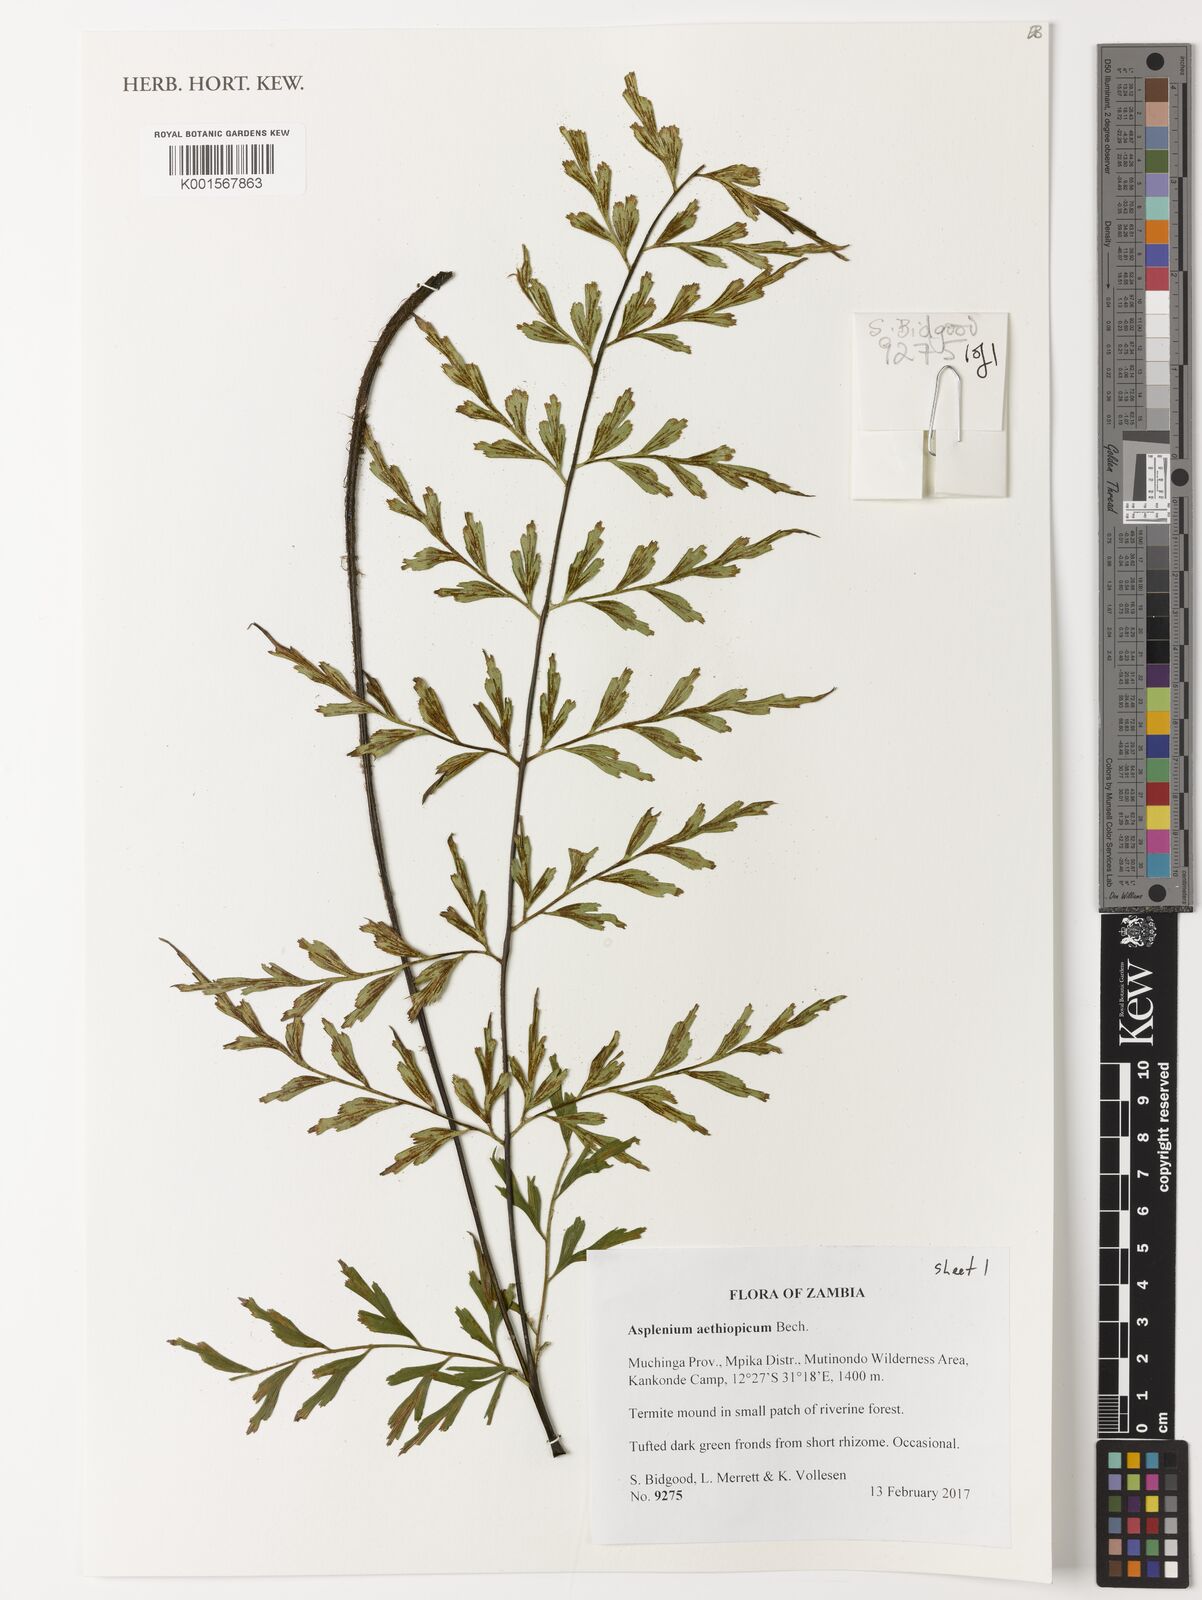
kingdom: Plantae
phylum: Tracheophyta
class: Polypodiopsida
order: Polypodiales
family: Aspleniaceae
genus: Asplenium
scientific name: Asplenium aethiopicum
